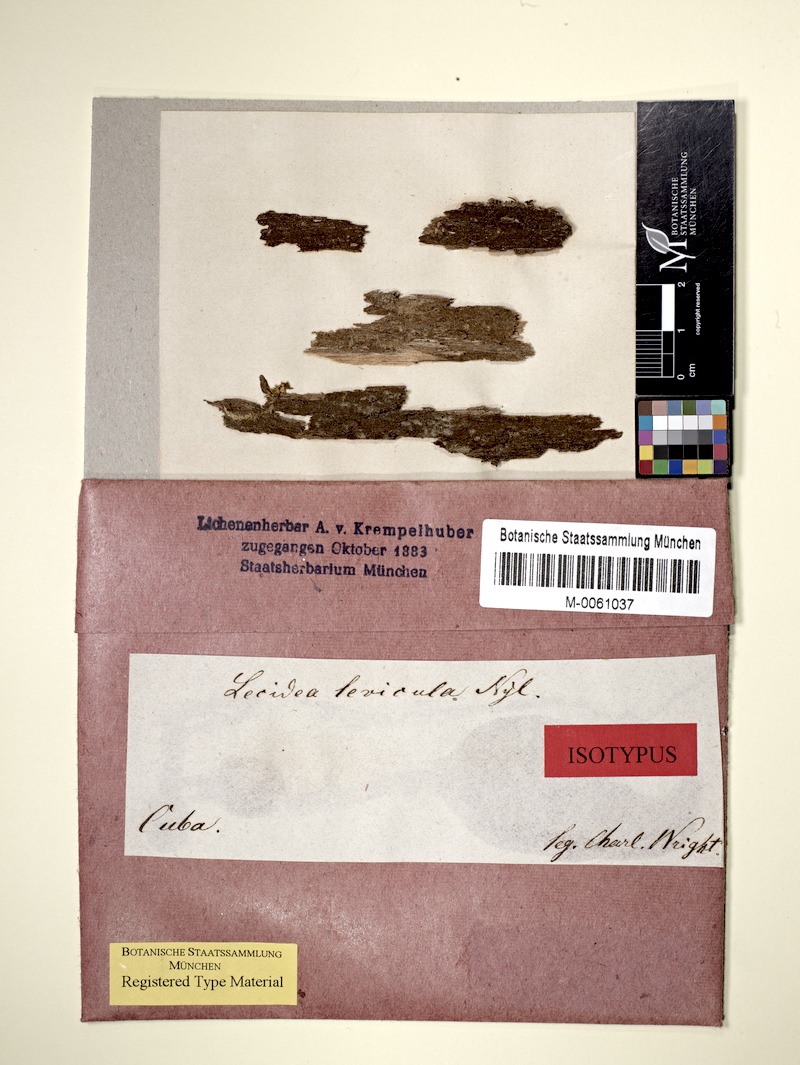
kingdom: Fungi
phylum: Ascomycota
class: Lecanoromycetes
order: Lecanorales
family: Byssolomataceae
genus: Micarea
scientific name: Micarea levicula
